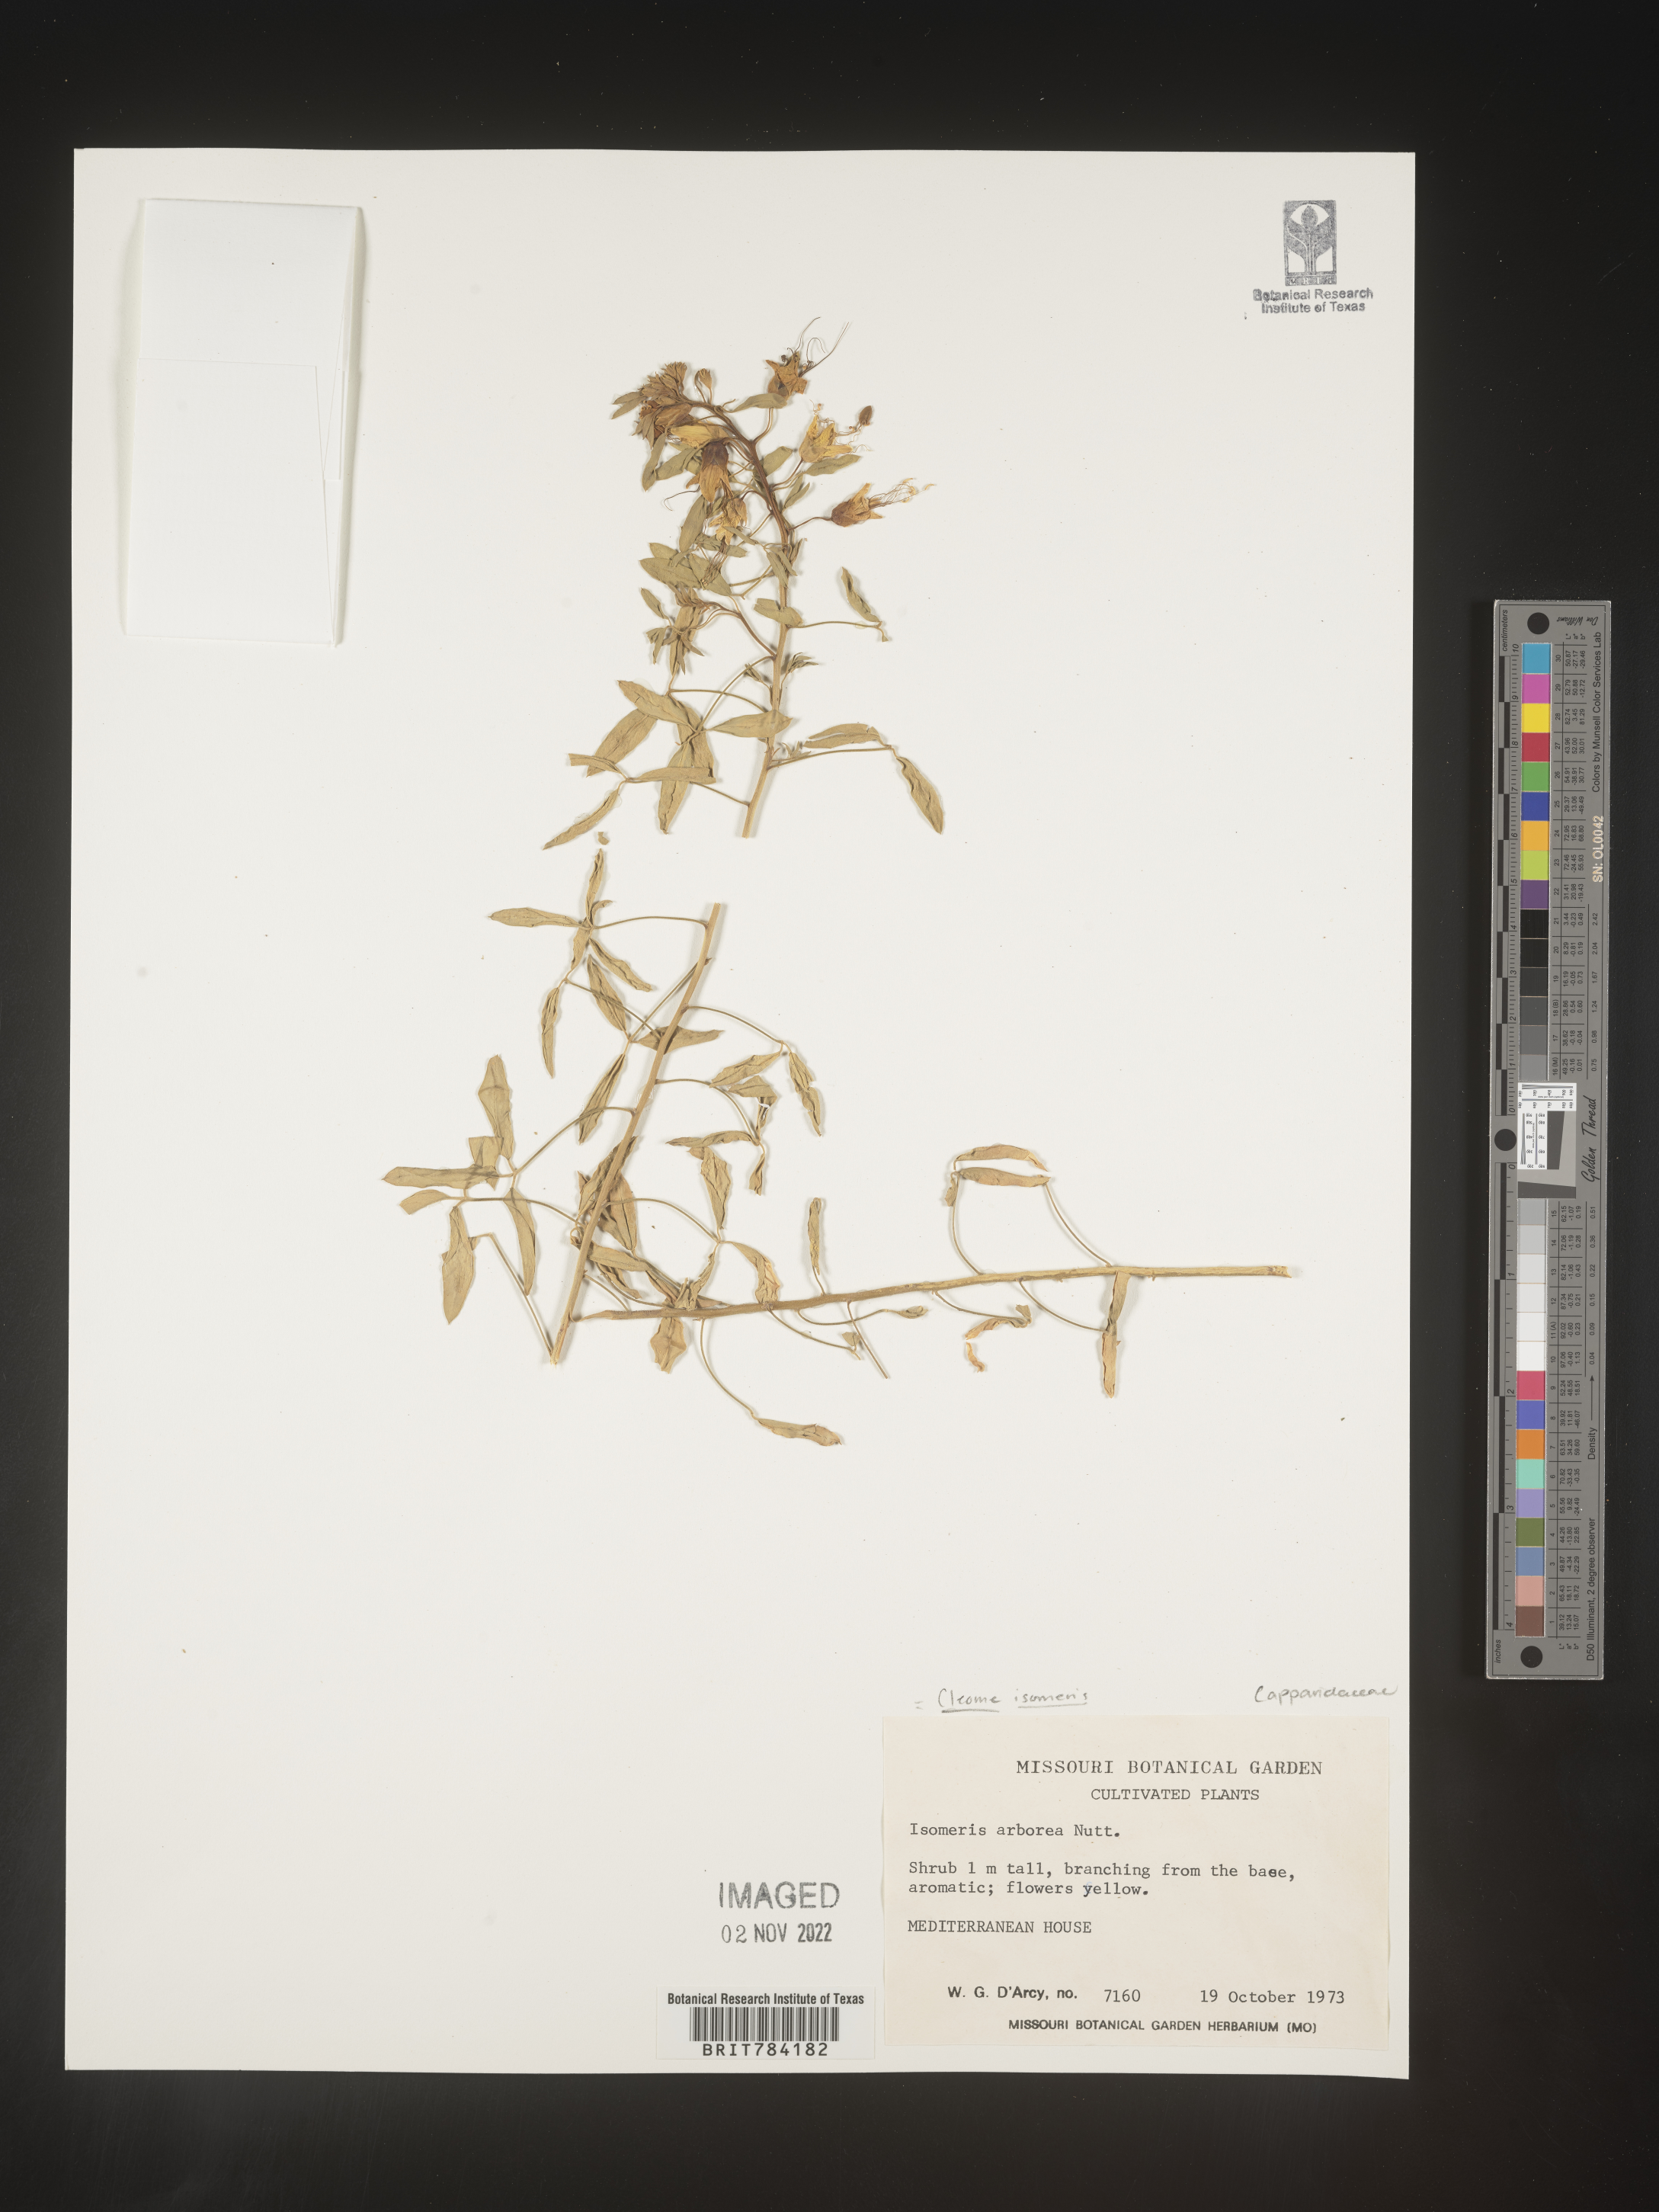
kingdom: Plantae
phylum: Tracheophyta
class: Magnoliopsida
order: Brassicales
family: Cleomaceae
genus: Cleome
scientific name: Cleome
